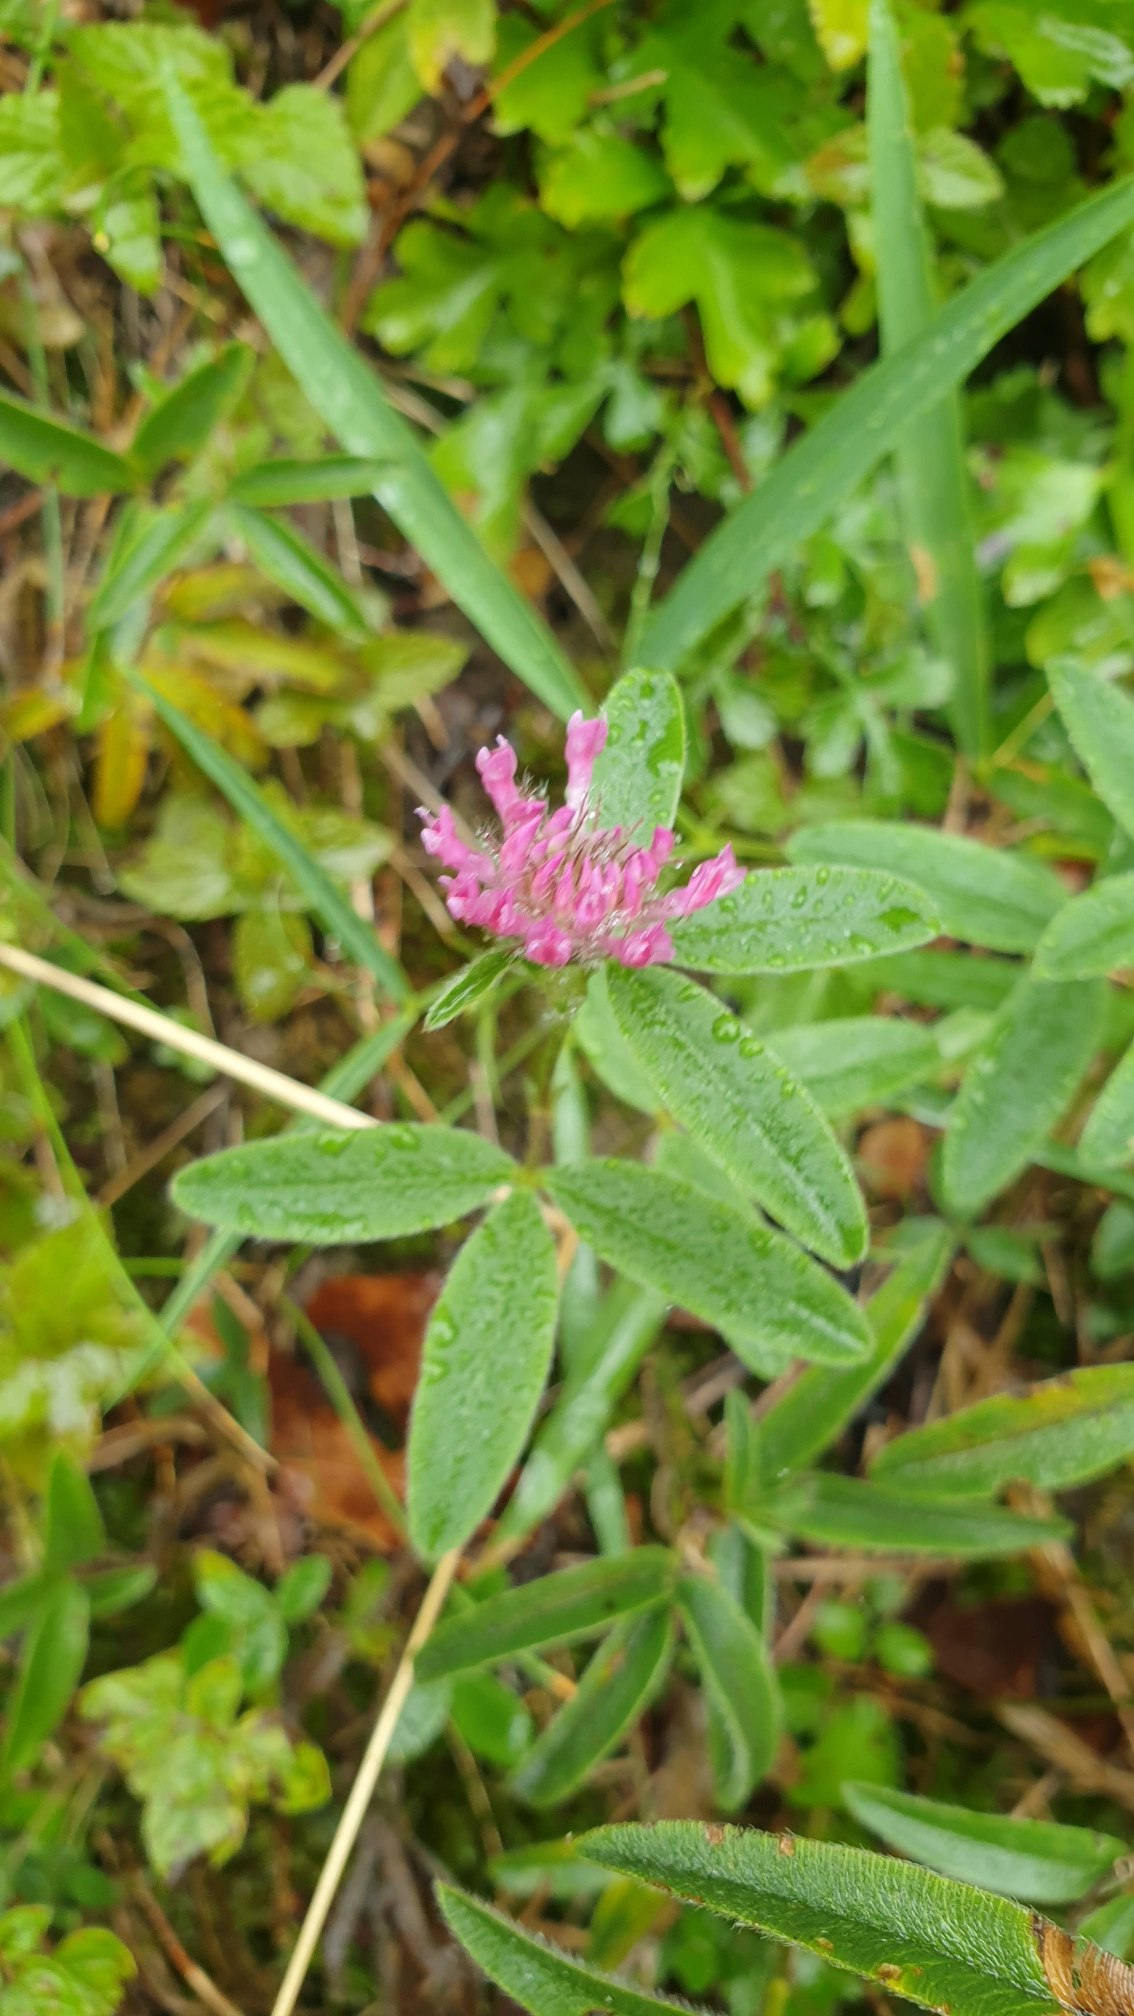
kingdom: Plantae
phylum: Tracheophyta
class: Magnoliopsida
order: Fabales
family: Fabaceae
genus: Trifolium
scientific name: Trifolium alpestre
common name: Skov-kløver
